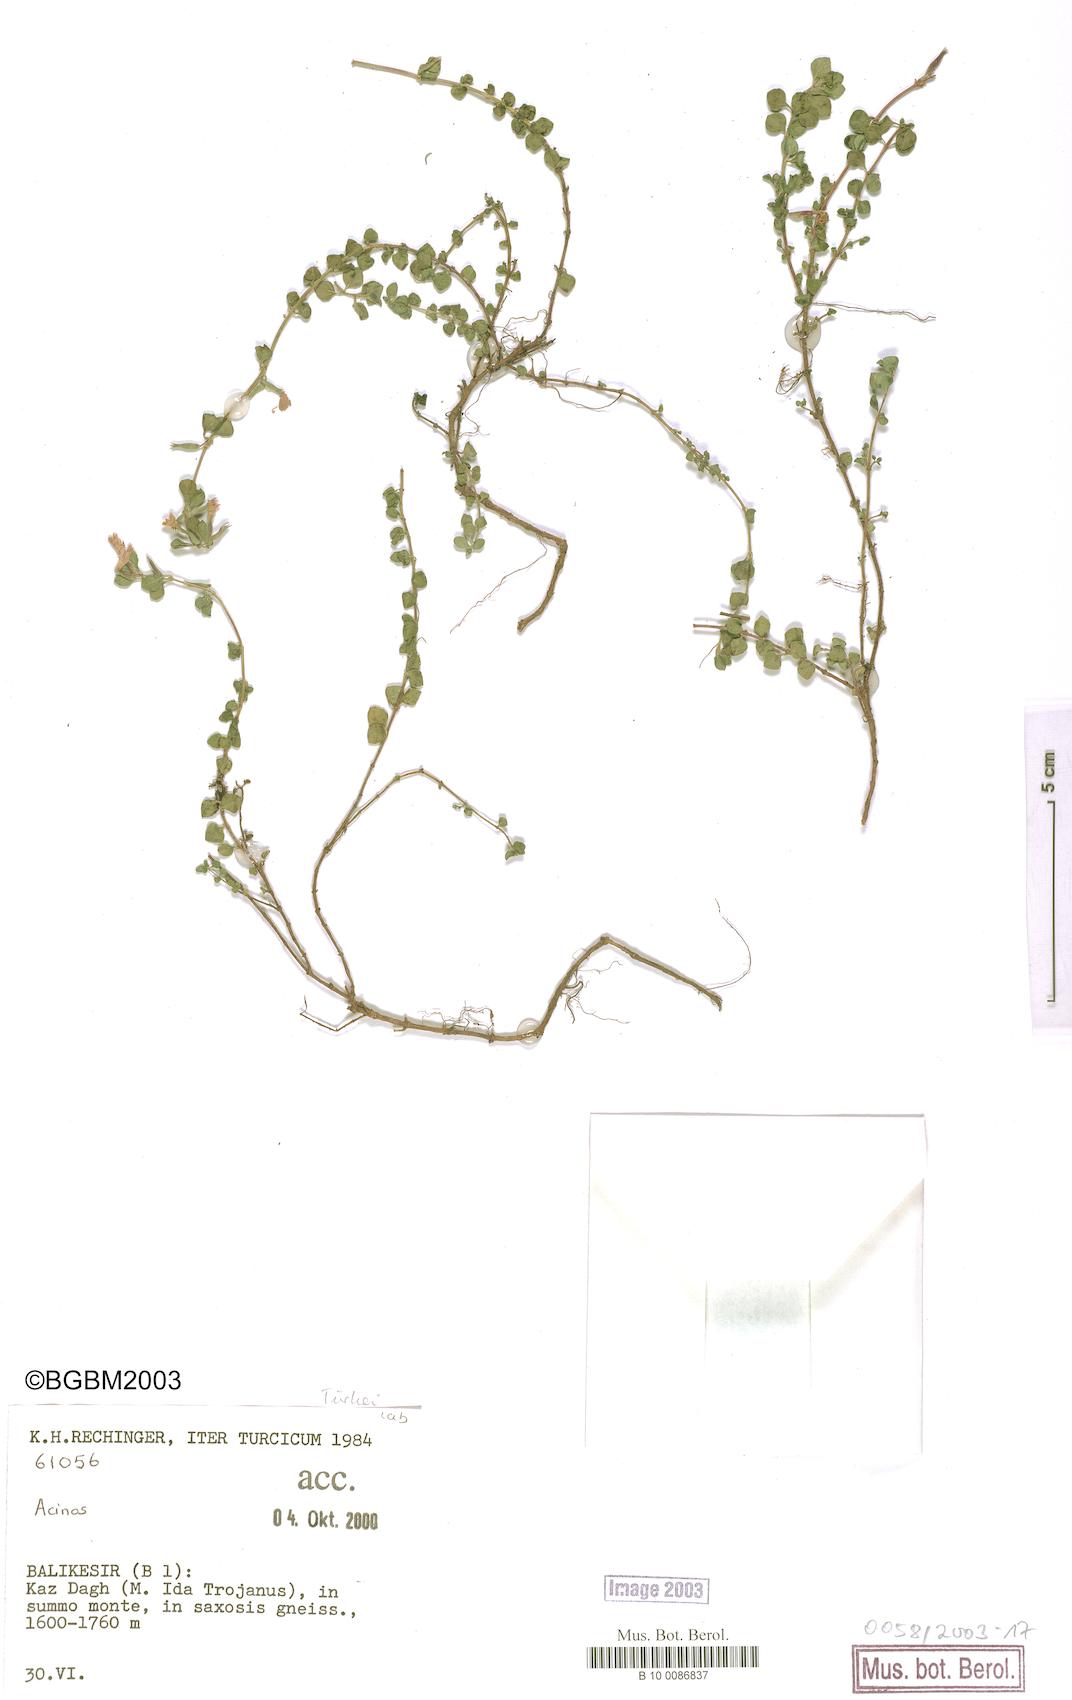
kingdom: Plantae
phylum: Tracheophyta
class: Magnoliopsida
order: Lamiales
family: Lamiaceae
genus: Acinos
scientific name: Acinos
